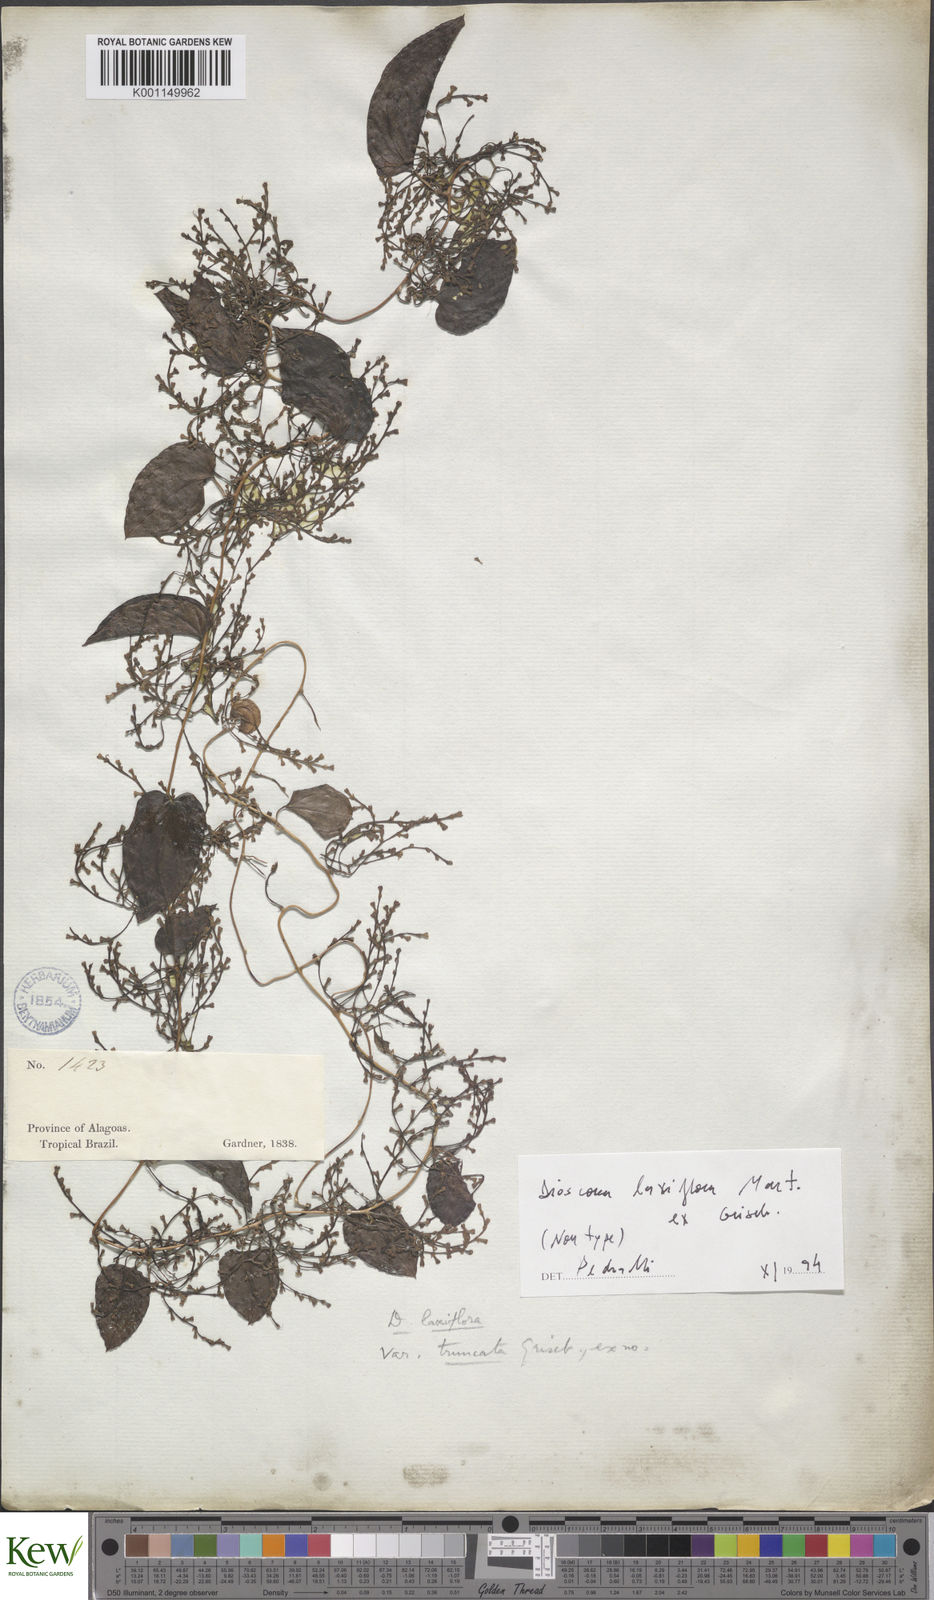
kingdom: Plantae
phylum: Tracheophyta
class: Liliopsida
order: Dioscoreales
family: Dioscoreaceae
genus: Dioscorea
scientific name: Dioscorea laxiflora
